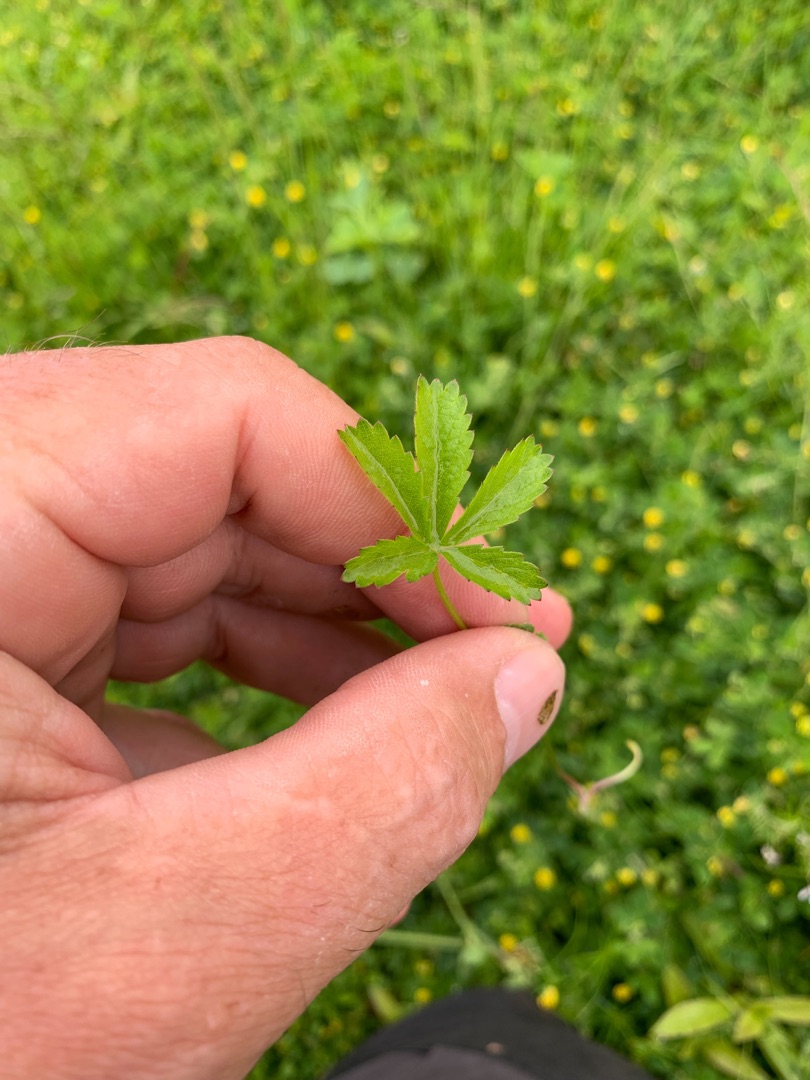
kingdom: Plantae
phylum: Tracheophyta
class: Magnoliopsida
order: Rosales
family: Rosaceae
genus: Potentilla
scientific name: Potentilla reptans
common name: Krybende potentil
